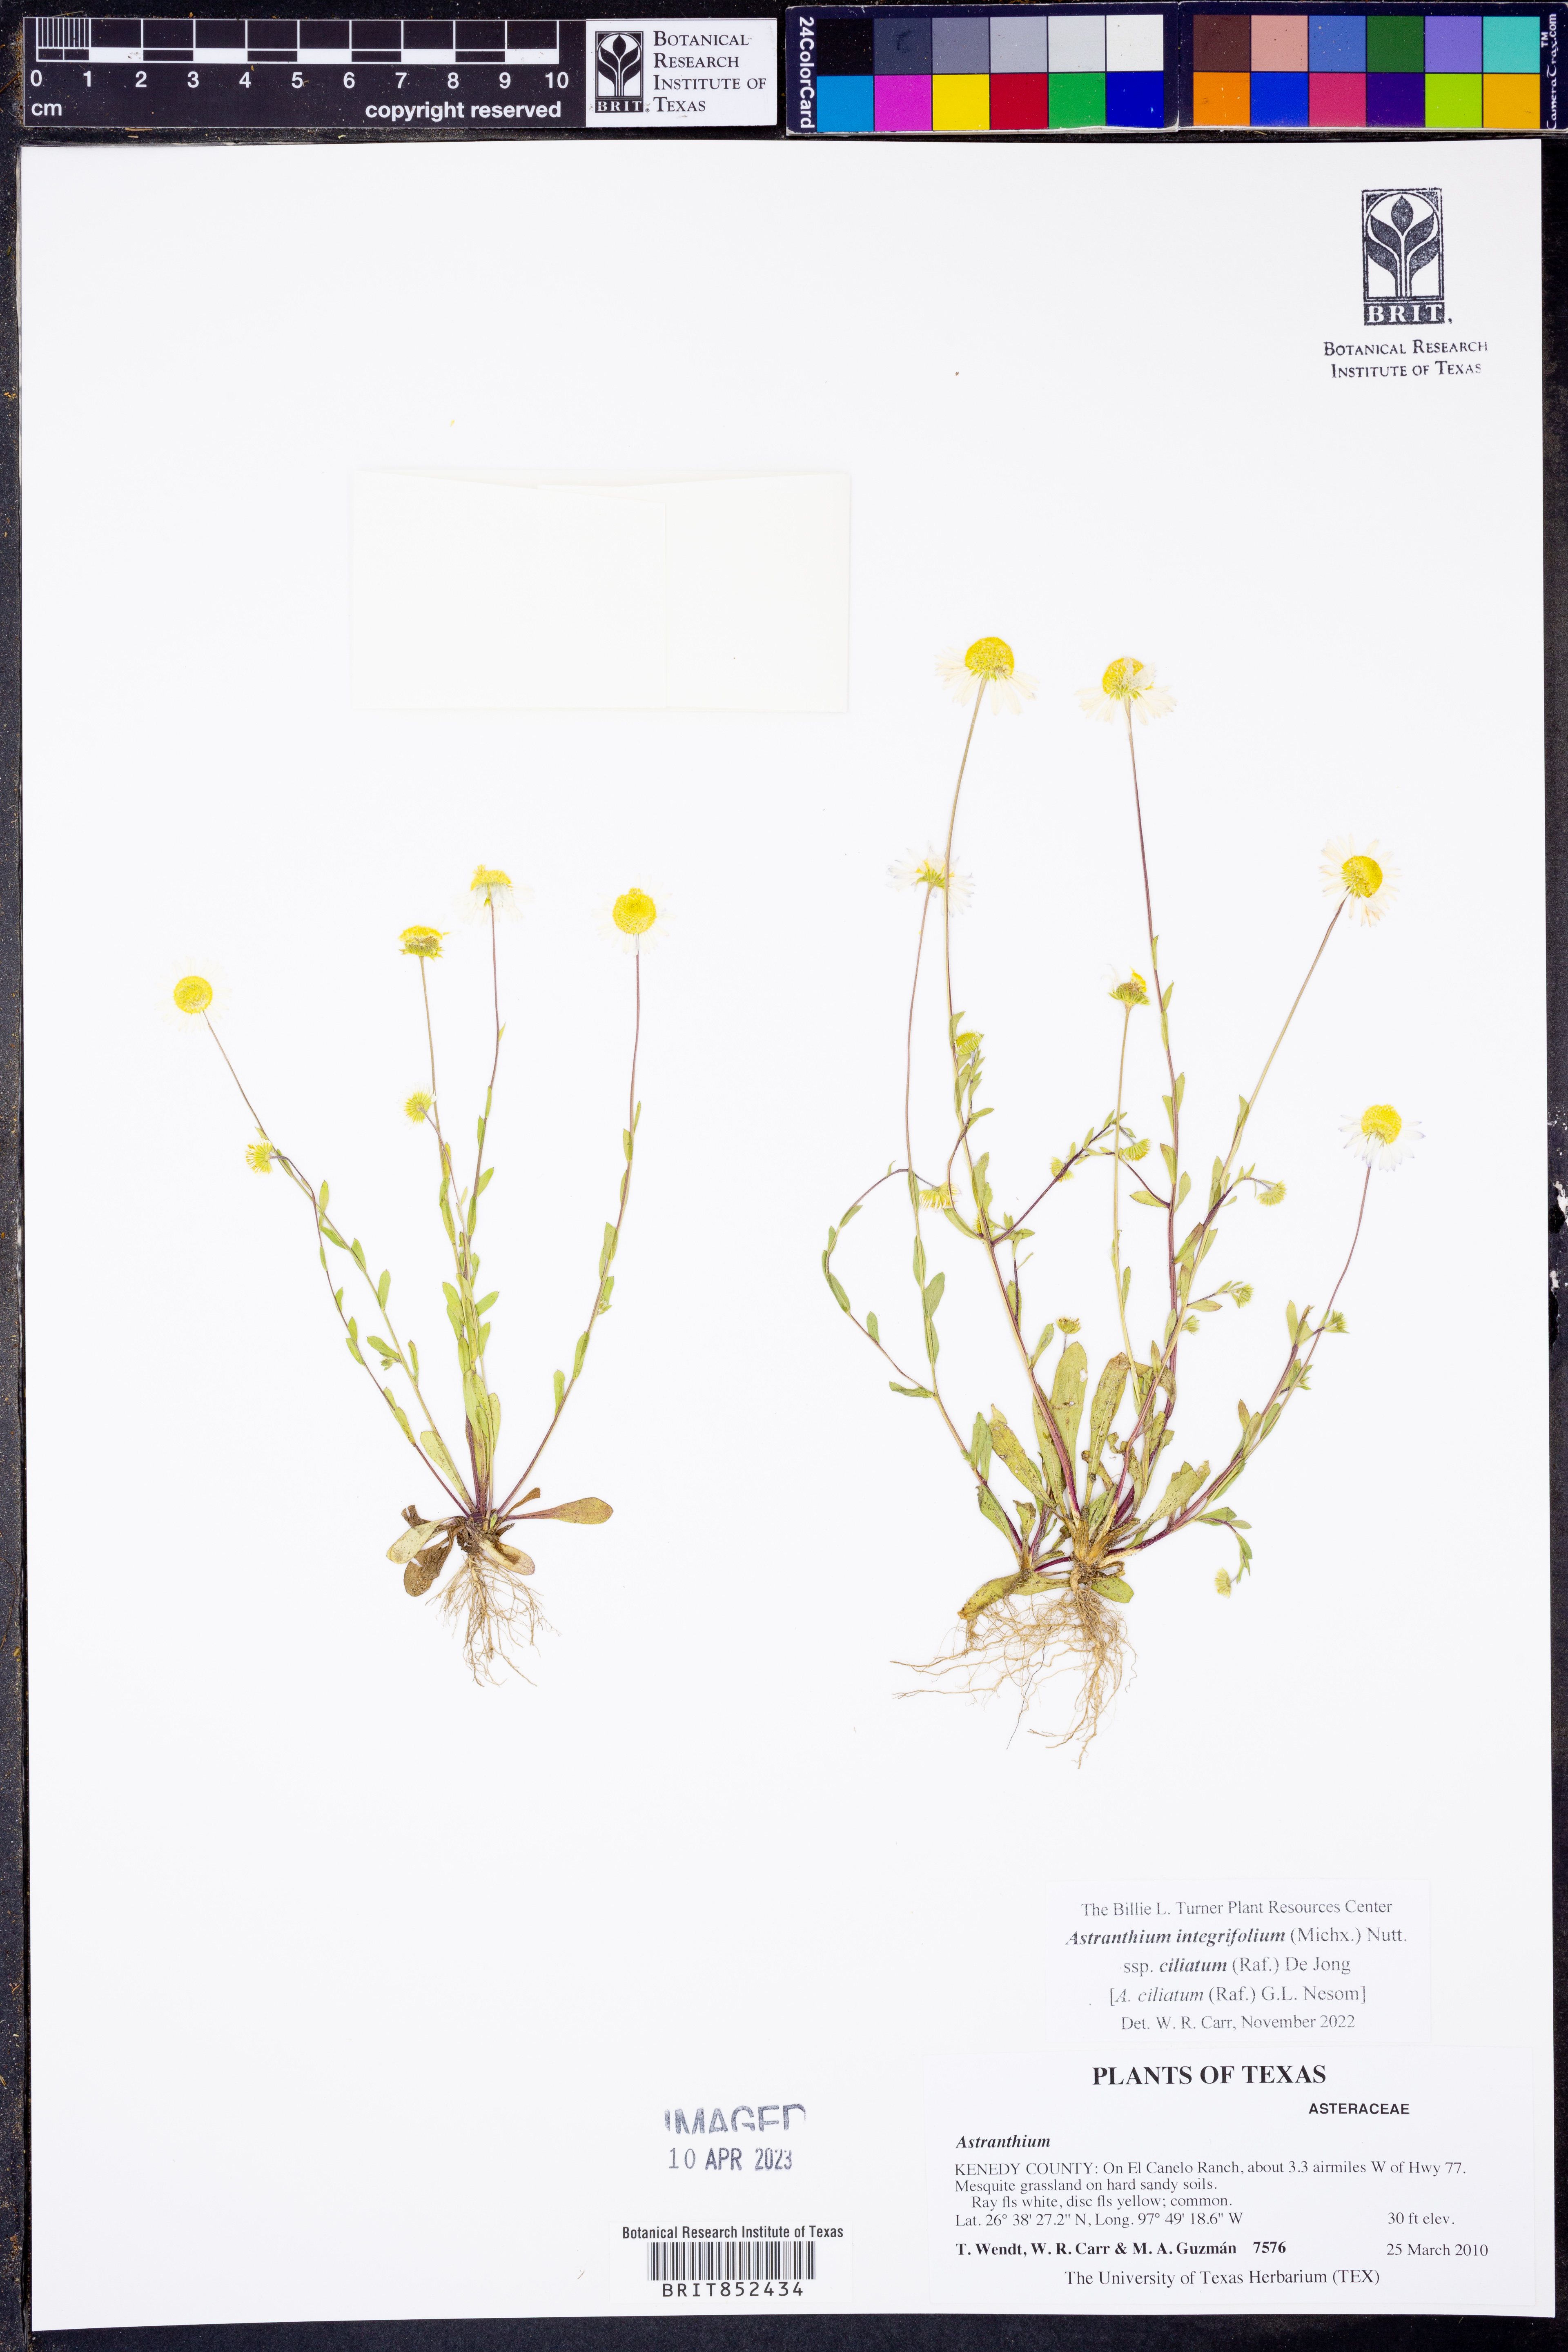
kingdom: Plantae
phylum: Tracheophyta
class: Magnoliopsida
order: Asterales
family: Asteraceae
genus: Astranthium
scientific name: Astranthium ciliatum
